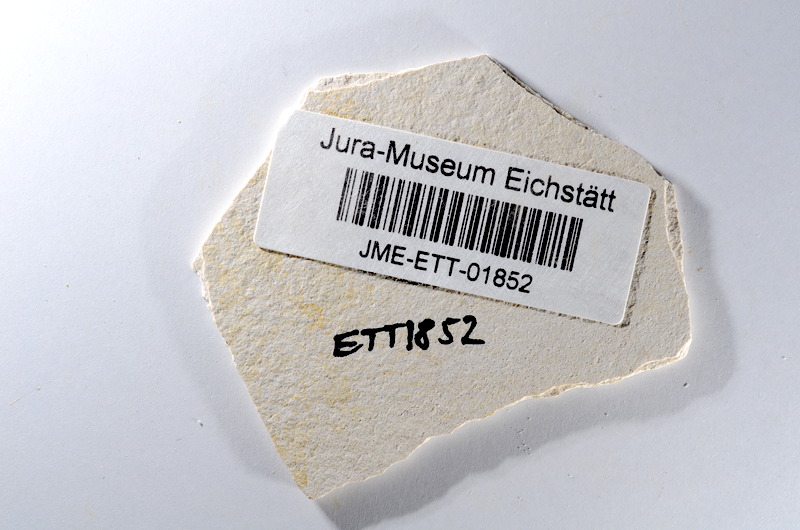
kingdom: Animalia
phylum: Chordata
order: Salmoniformes
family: Orthogonikleithridae
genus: Orthogonikleithrus
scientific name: Orthogonikleithrus hoelli
